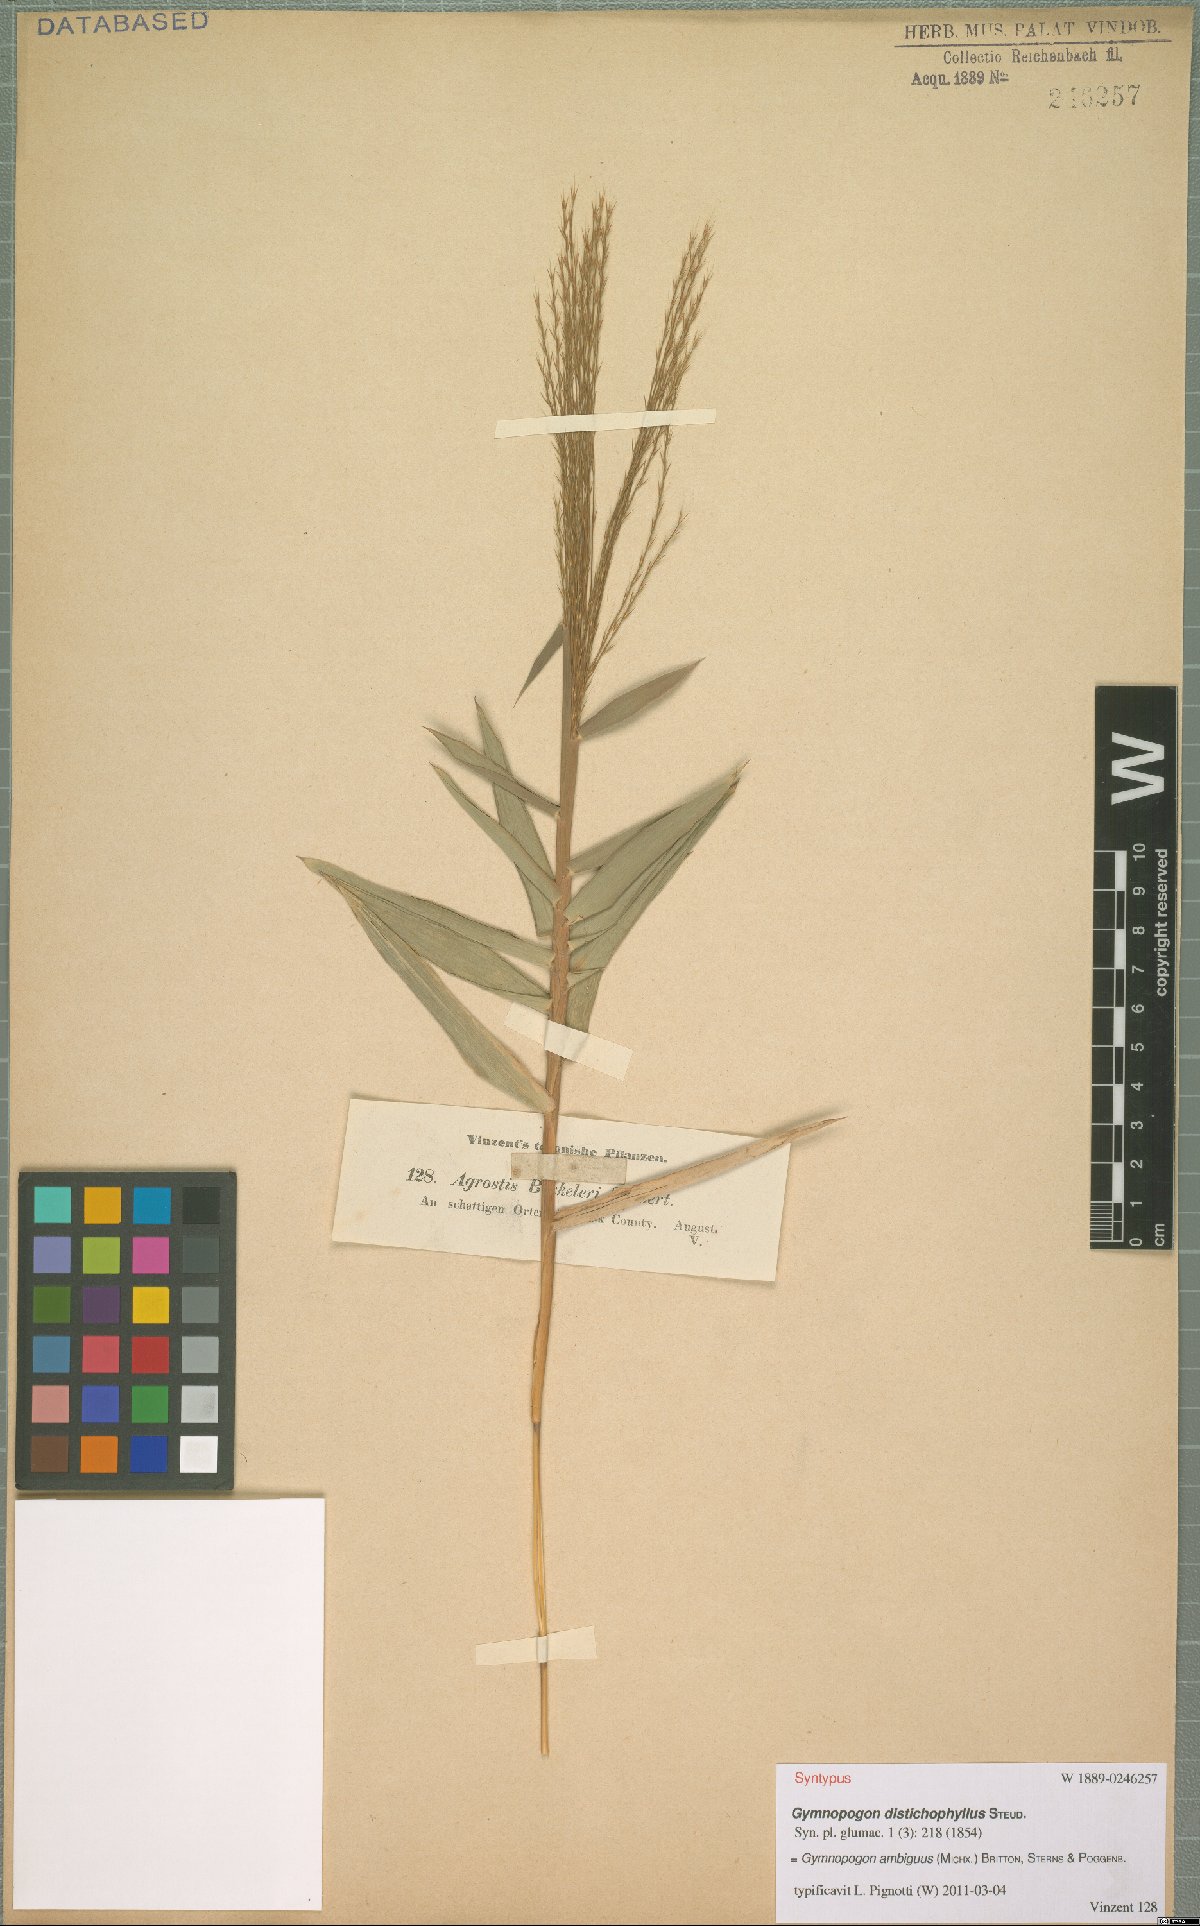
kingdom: Plantae
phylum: Tracheophyta
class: Liliopsida
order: Poales
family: Poaceae
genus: Gymnopogon
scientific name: Gymnopogon ambiguus
